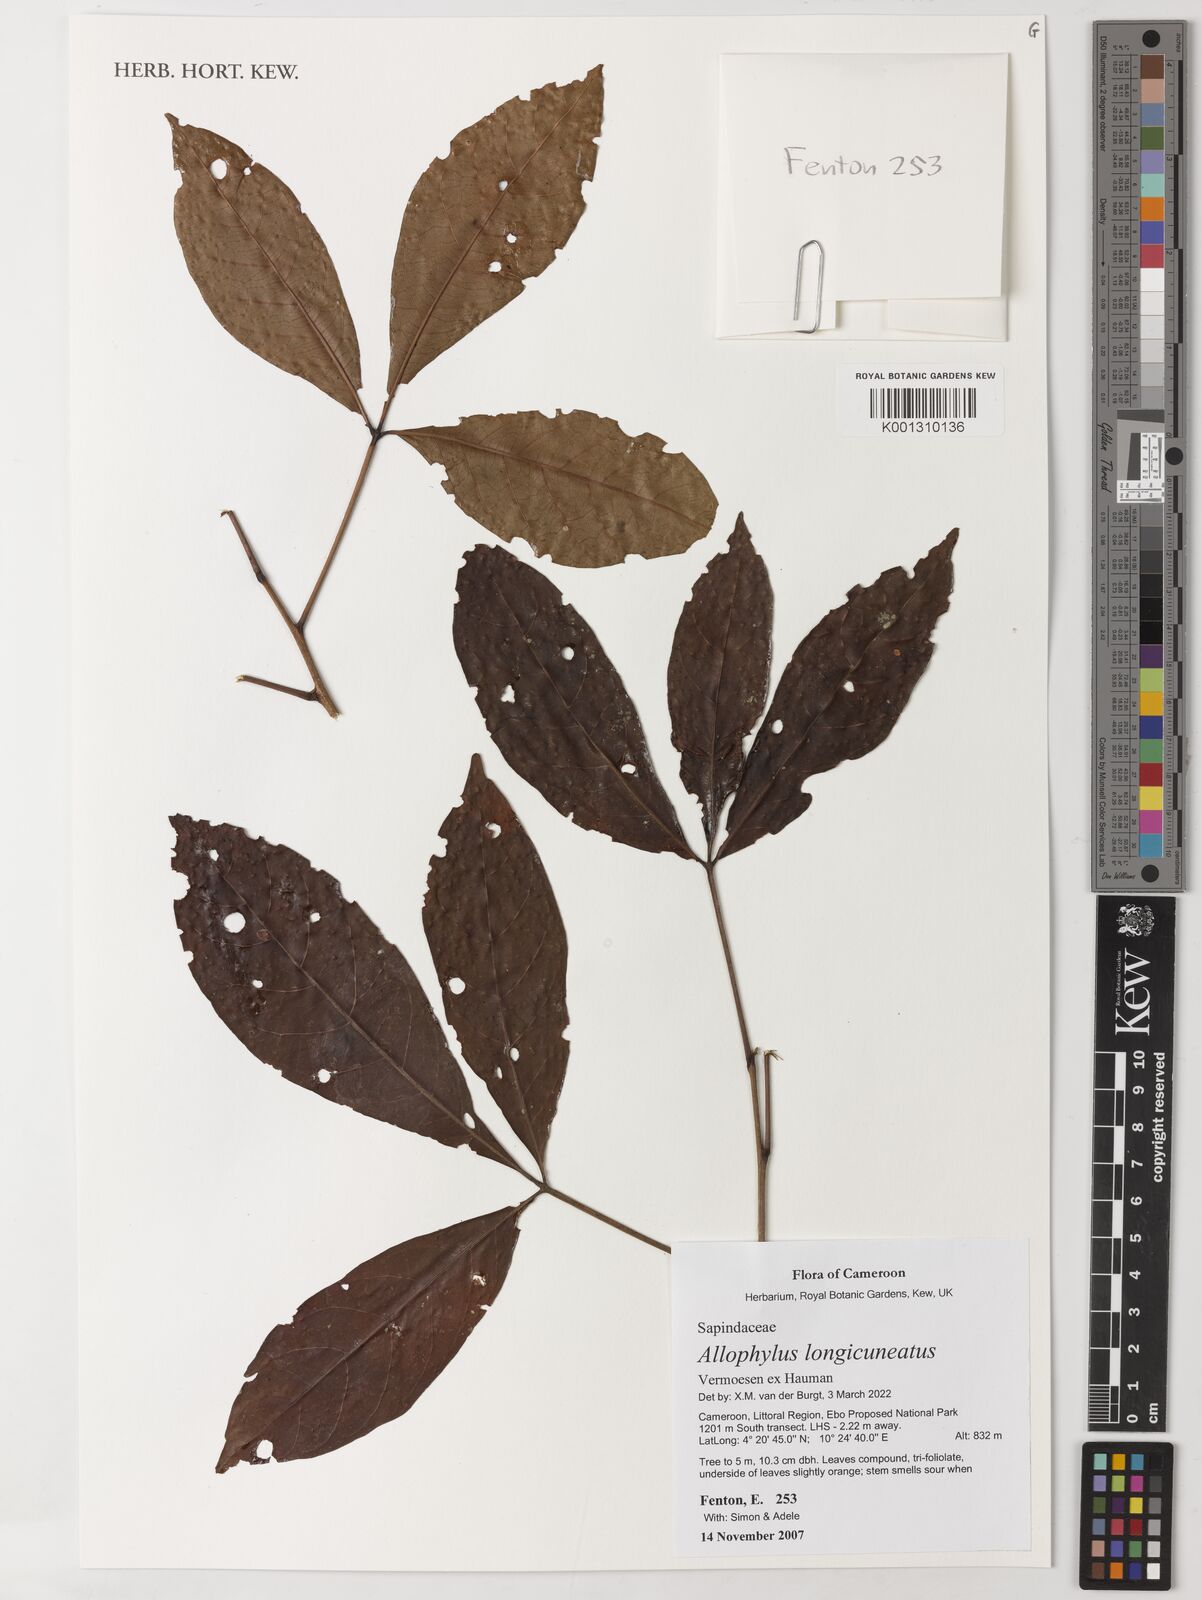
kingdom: Plantae
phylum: Tracheophyta
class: Magnoliopsida
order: Sapindales
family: Sapindaceae
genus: Allophylus
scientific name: Allophylus longicuneatus
